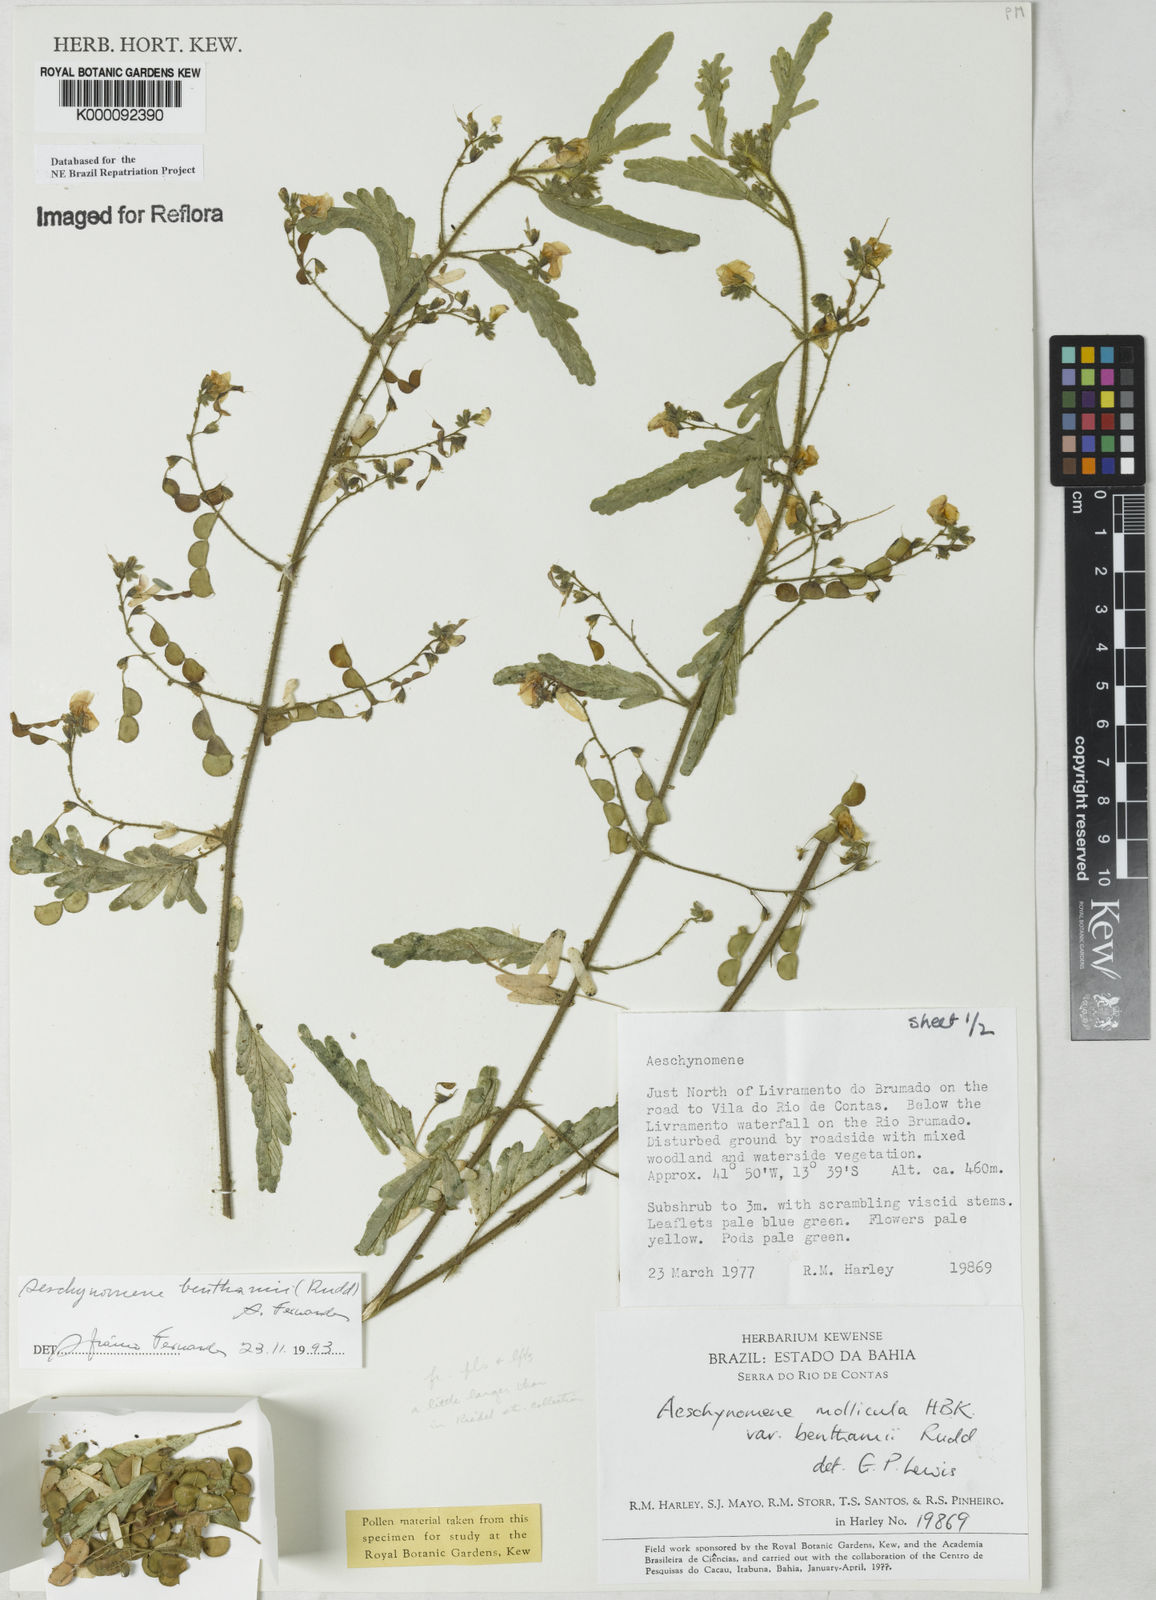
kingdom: Plantae
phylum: Tracheophyta
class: Magnoliopsida
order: Fabales
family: Fabaceae
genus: Aeschynomene
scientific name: Aeschynomene
